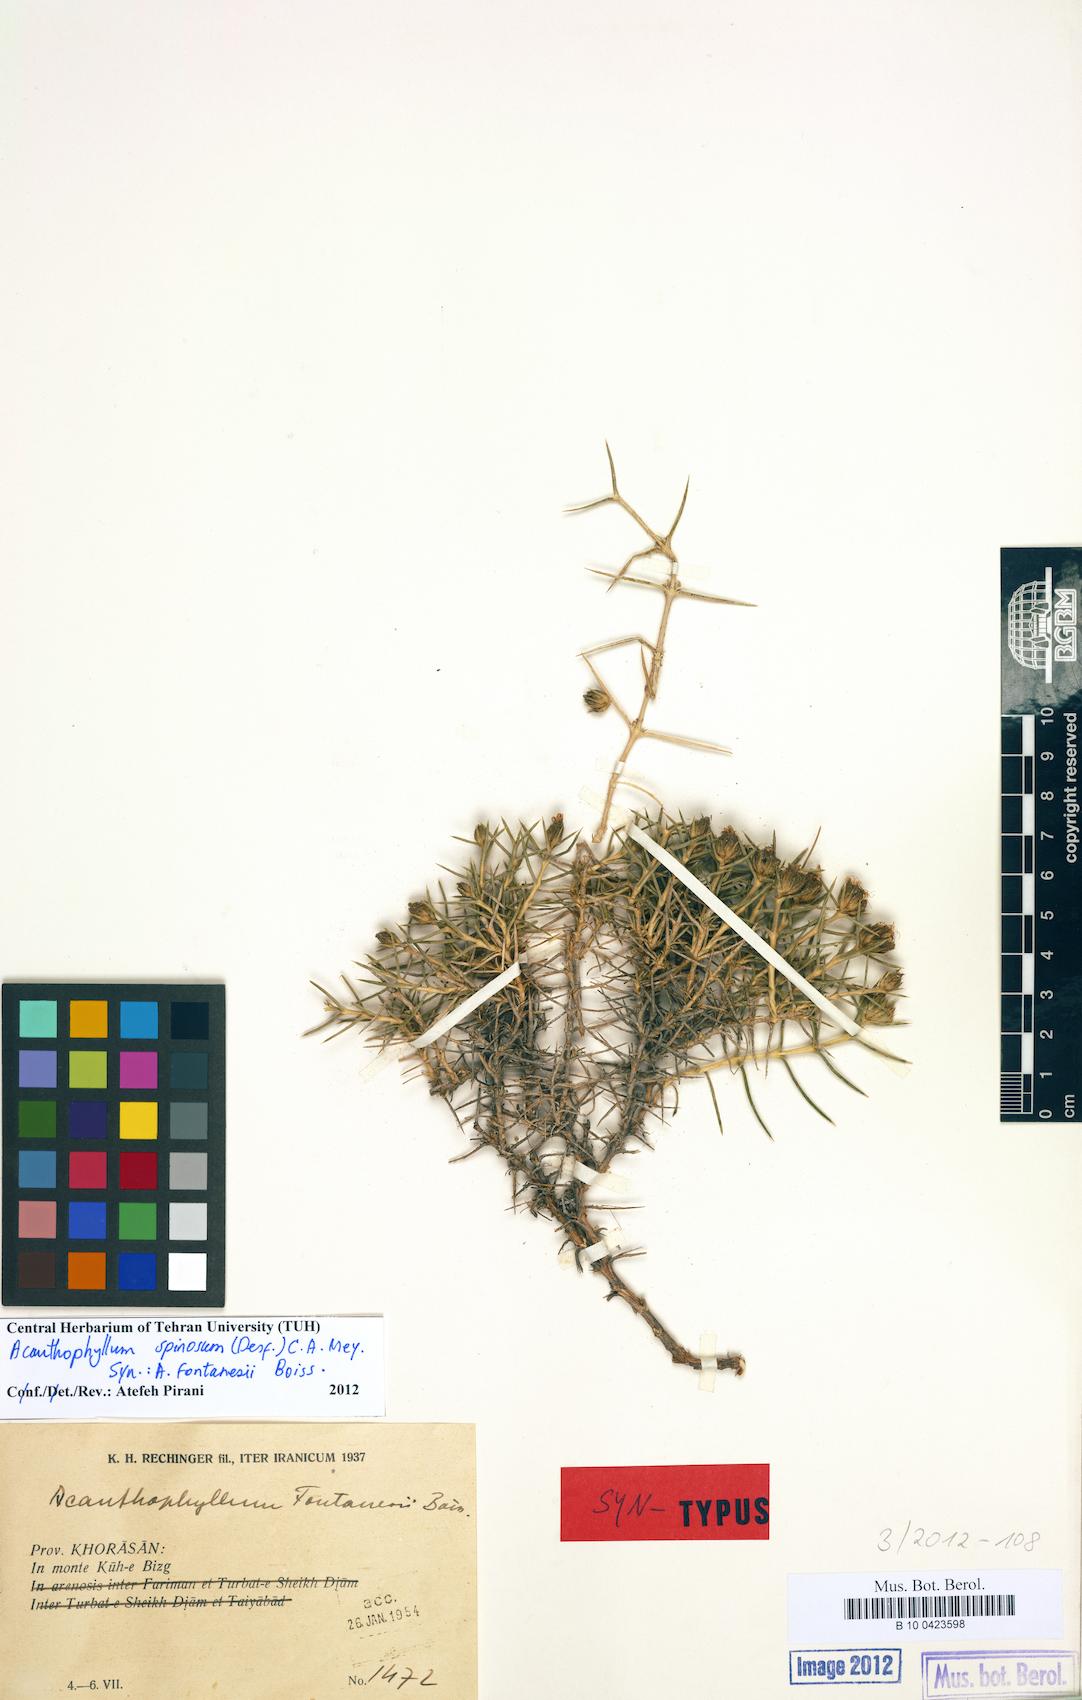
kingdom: Plantae
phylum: Tracheophyta
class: Magnoliopsida
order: Caryophyllales
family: Caryophyllaceae
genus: Acanthophyllum
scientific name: Acanthophyllum
